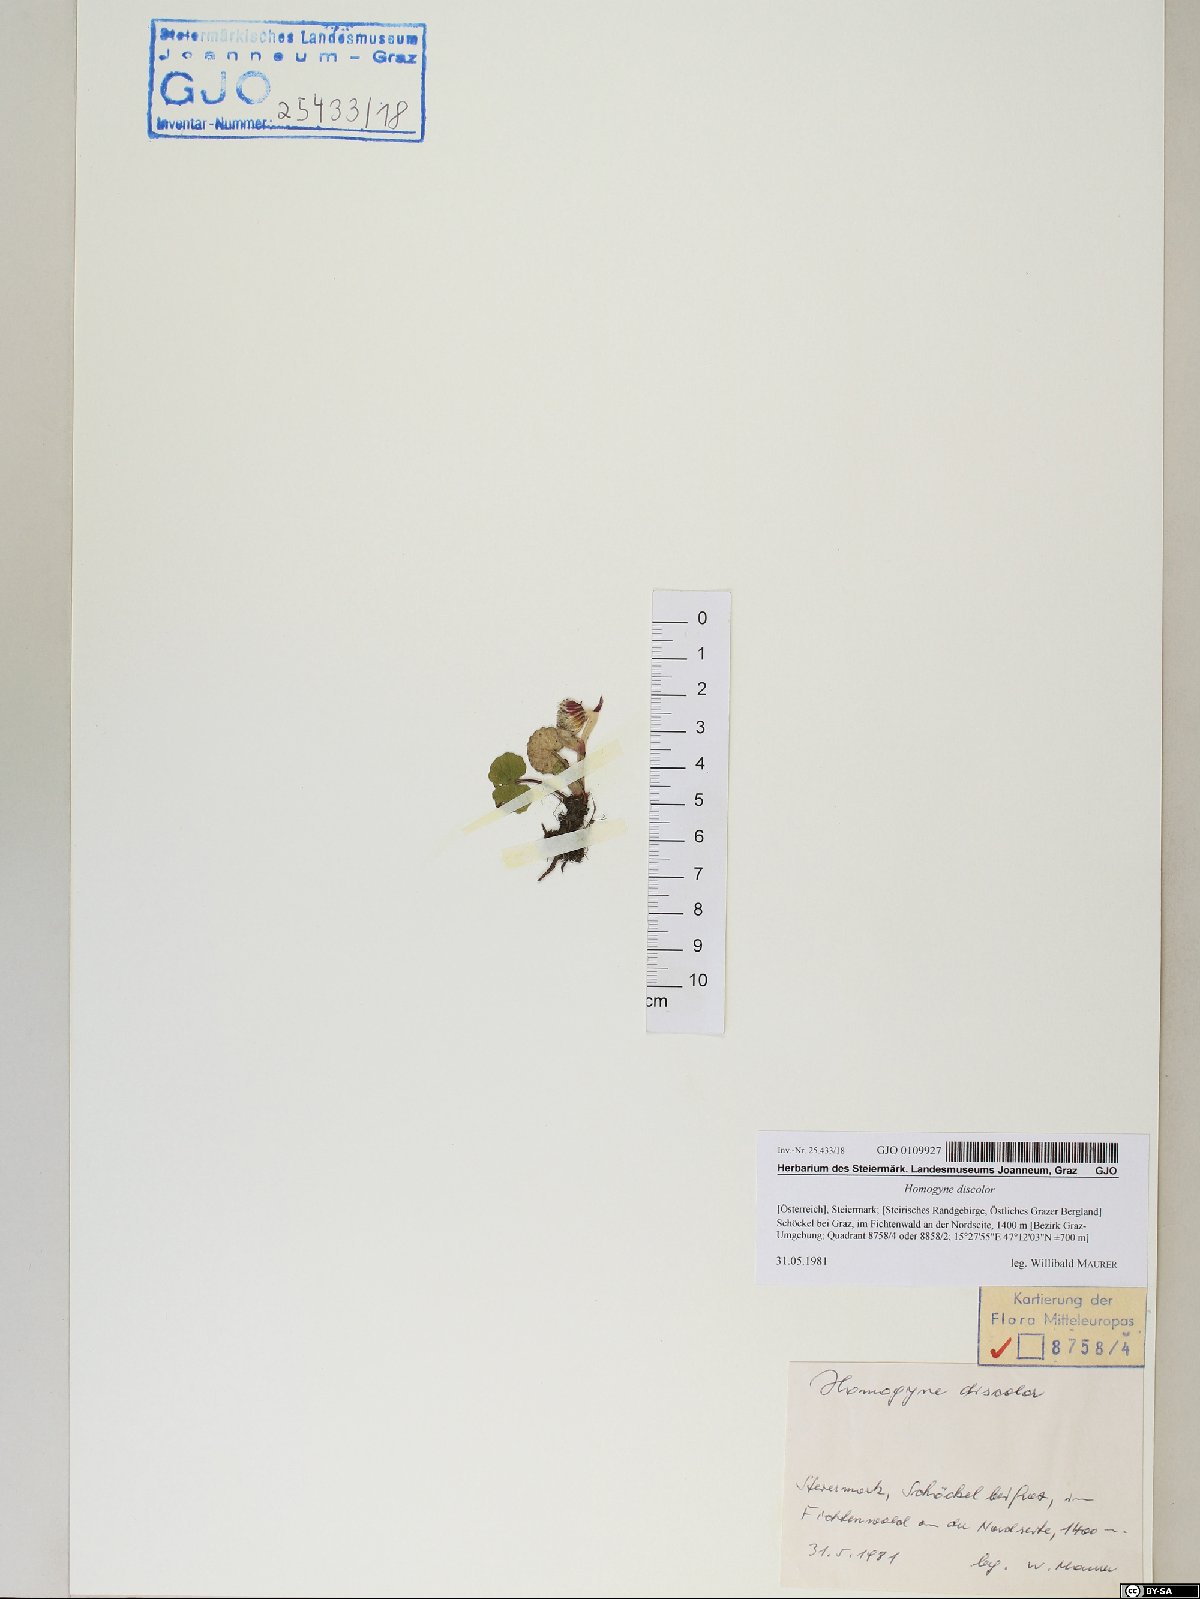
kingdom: Plantae
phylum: Tracheophyta
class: Magnoliopsida
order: Asterales
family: Asteraceae
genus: Homogyne
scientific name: Homogyne discolor
